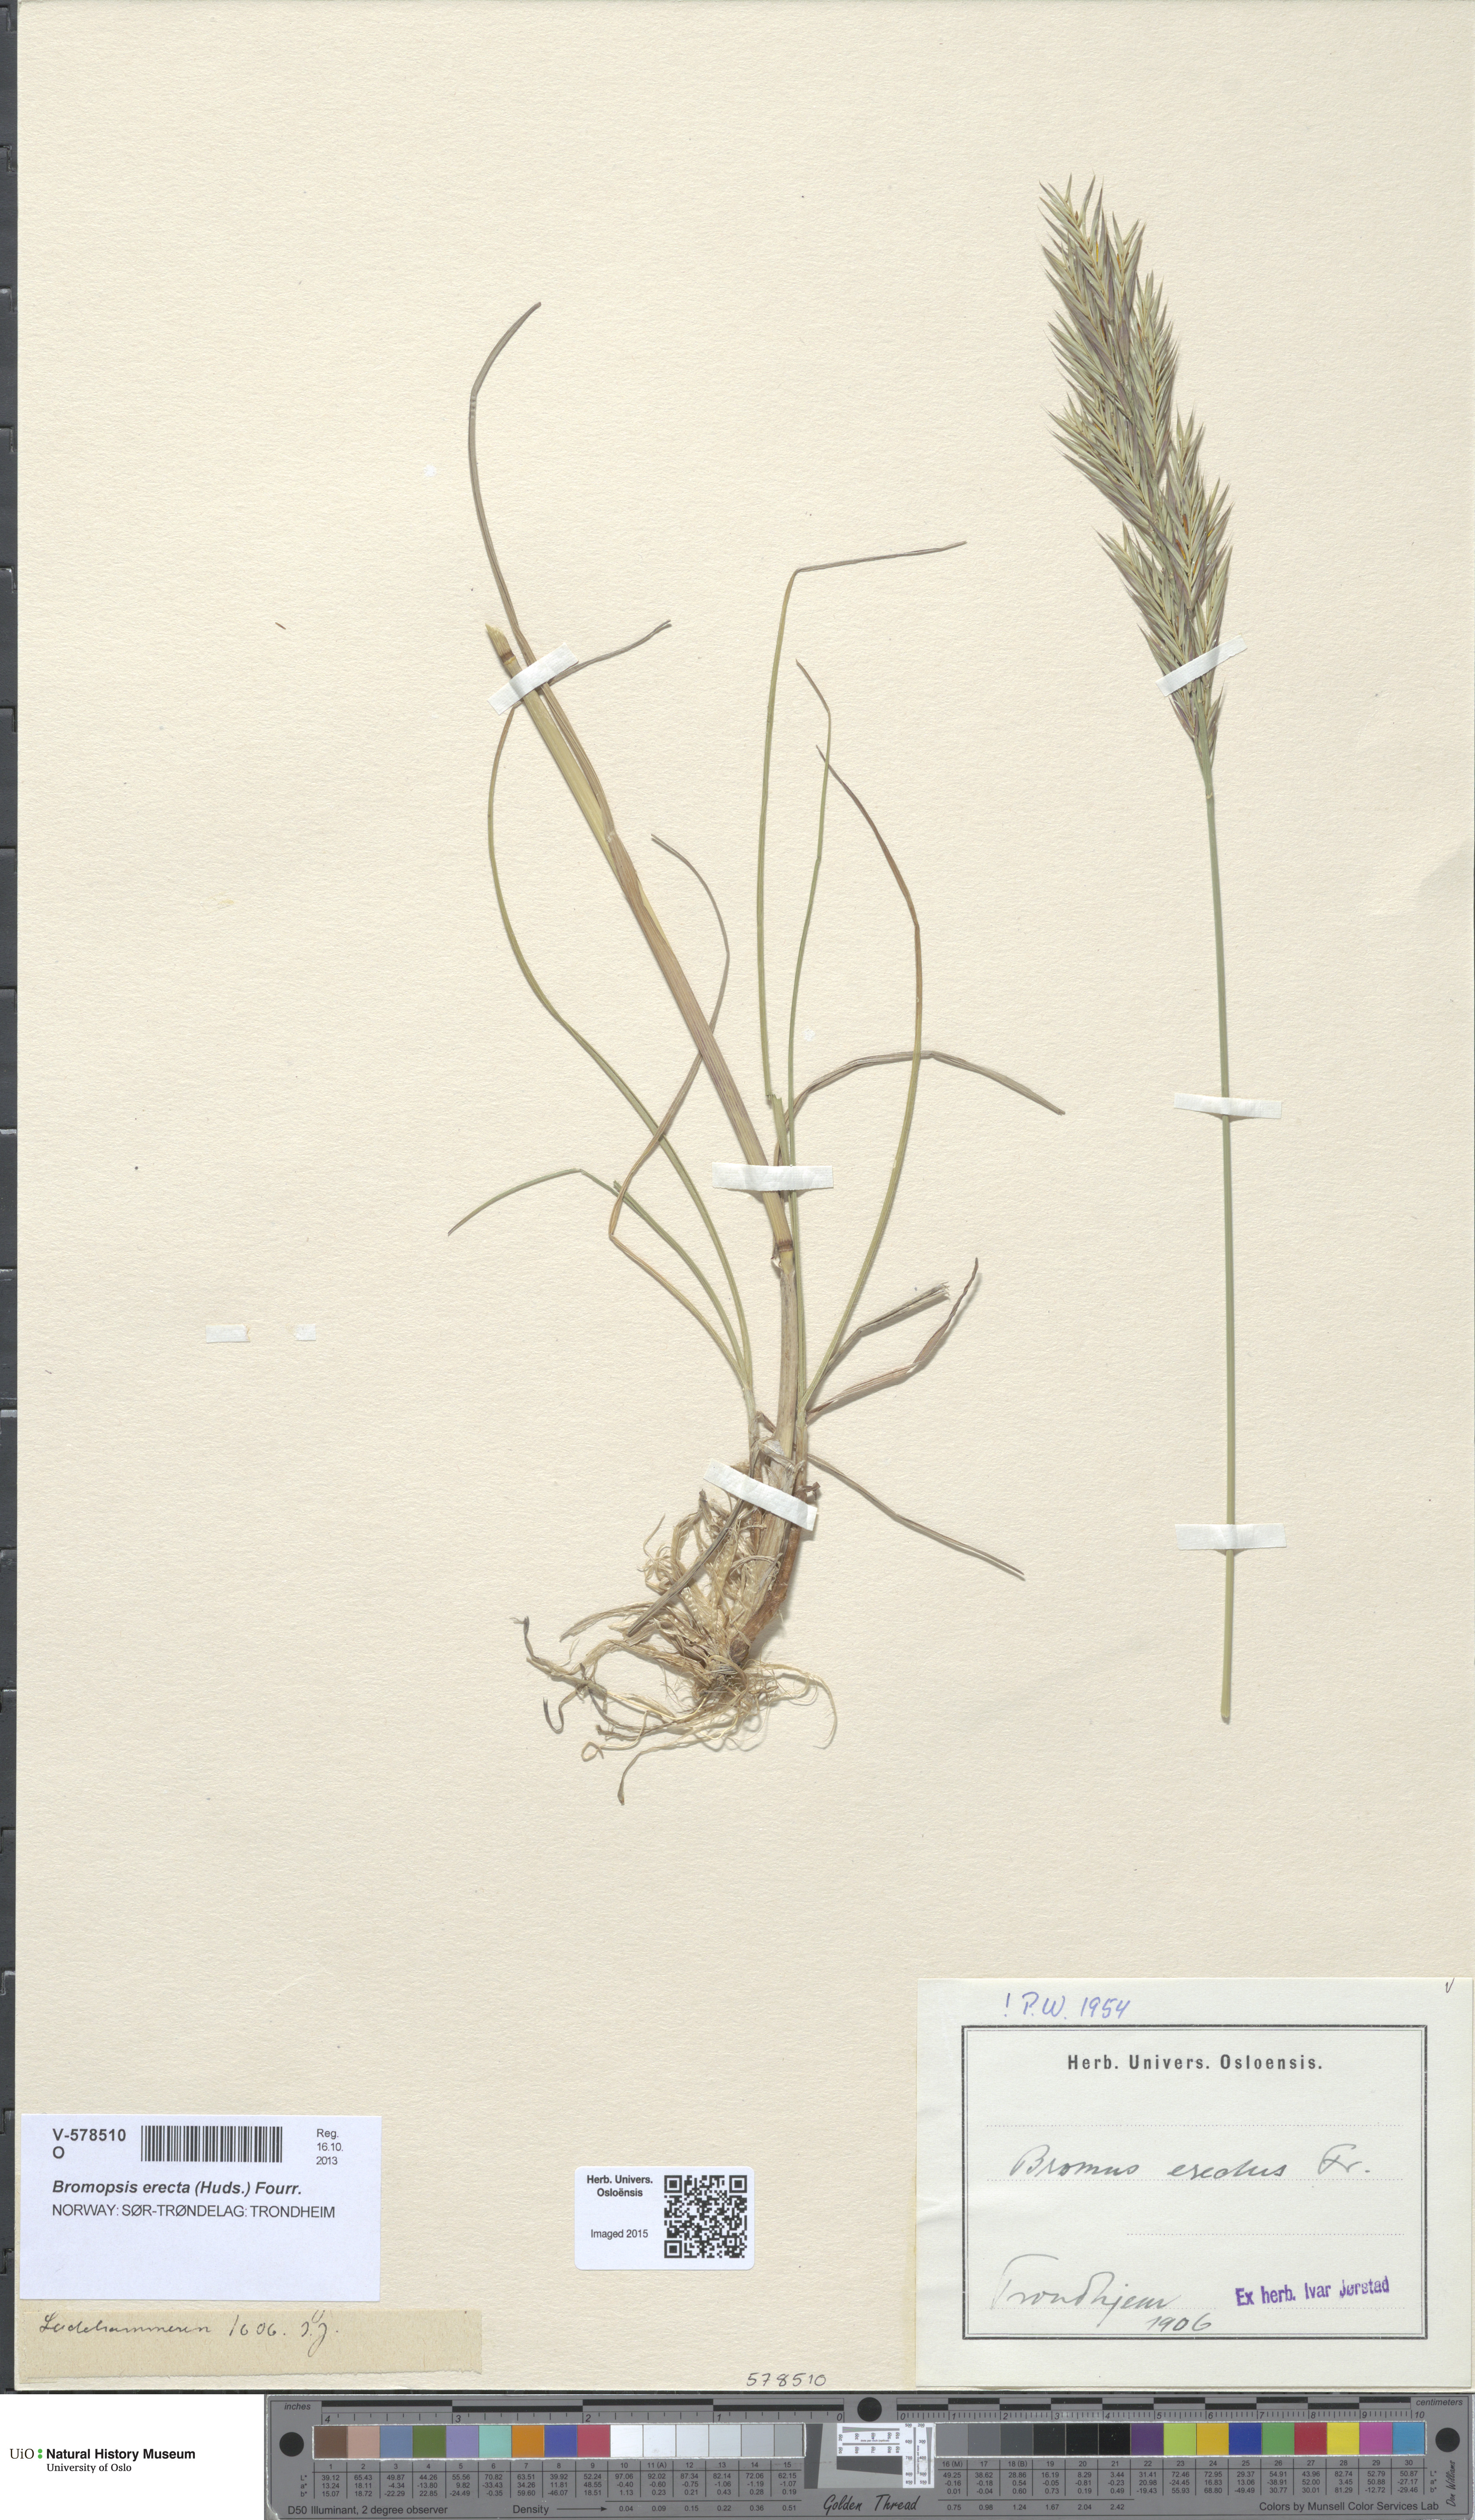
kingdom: Plantae
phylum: Tracheophyta
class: Liliopsida
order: Poales
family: Poaceae
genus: Bromus
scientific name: Bromus erectus
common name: Erect brome
